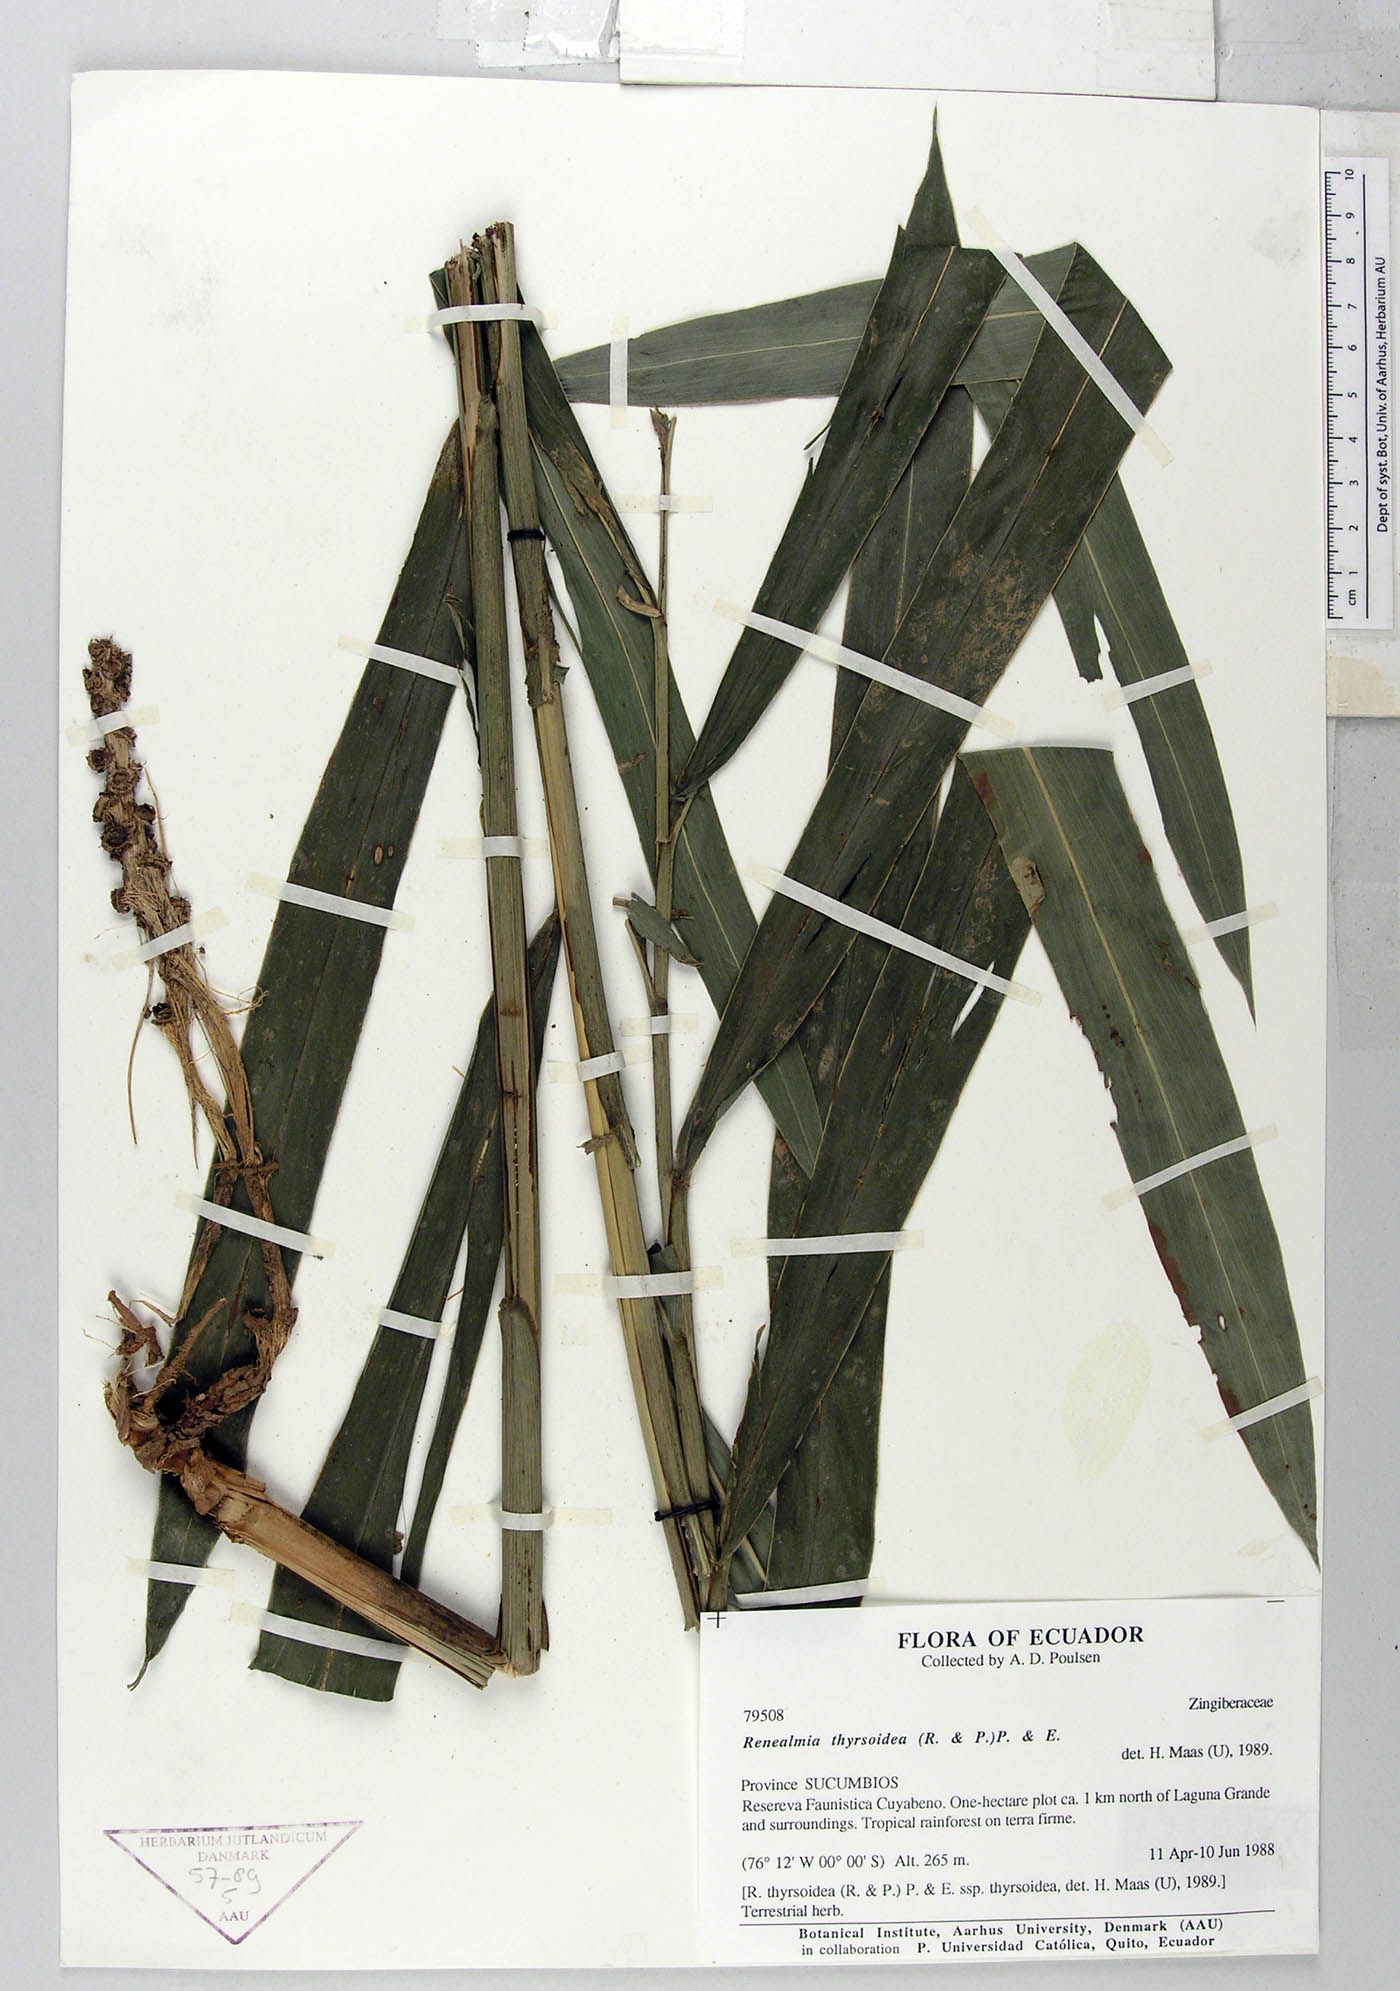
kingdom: Plantae
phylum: Tracheophyta
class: Liliopsida
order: Zingiberales
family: Zingiberaceae
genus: Renealmia
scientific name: Renealmia thyrsoidea
